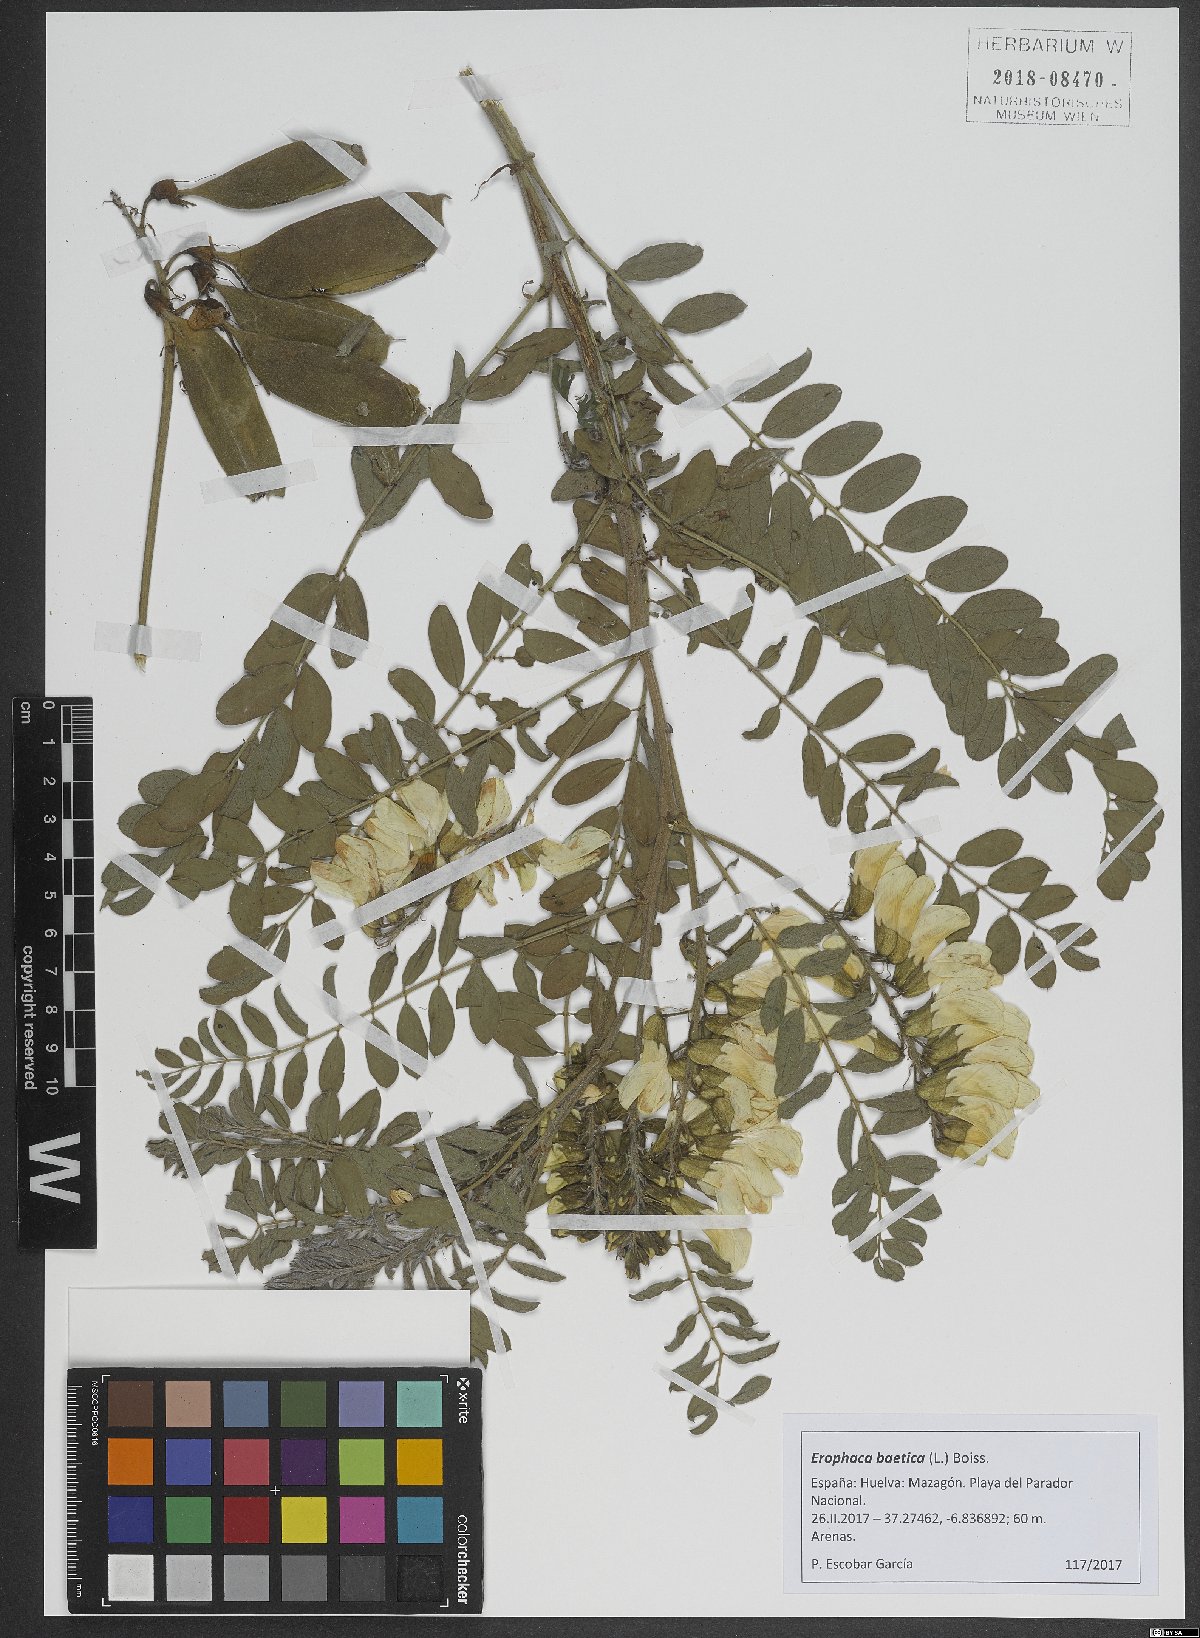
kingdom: Plantae
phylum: Tracheophyta
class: Magnoliopsida
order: Fabales
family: Fabaceae
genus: Erophaca
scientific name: Erophaca baetica
